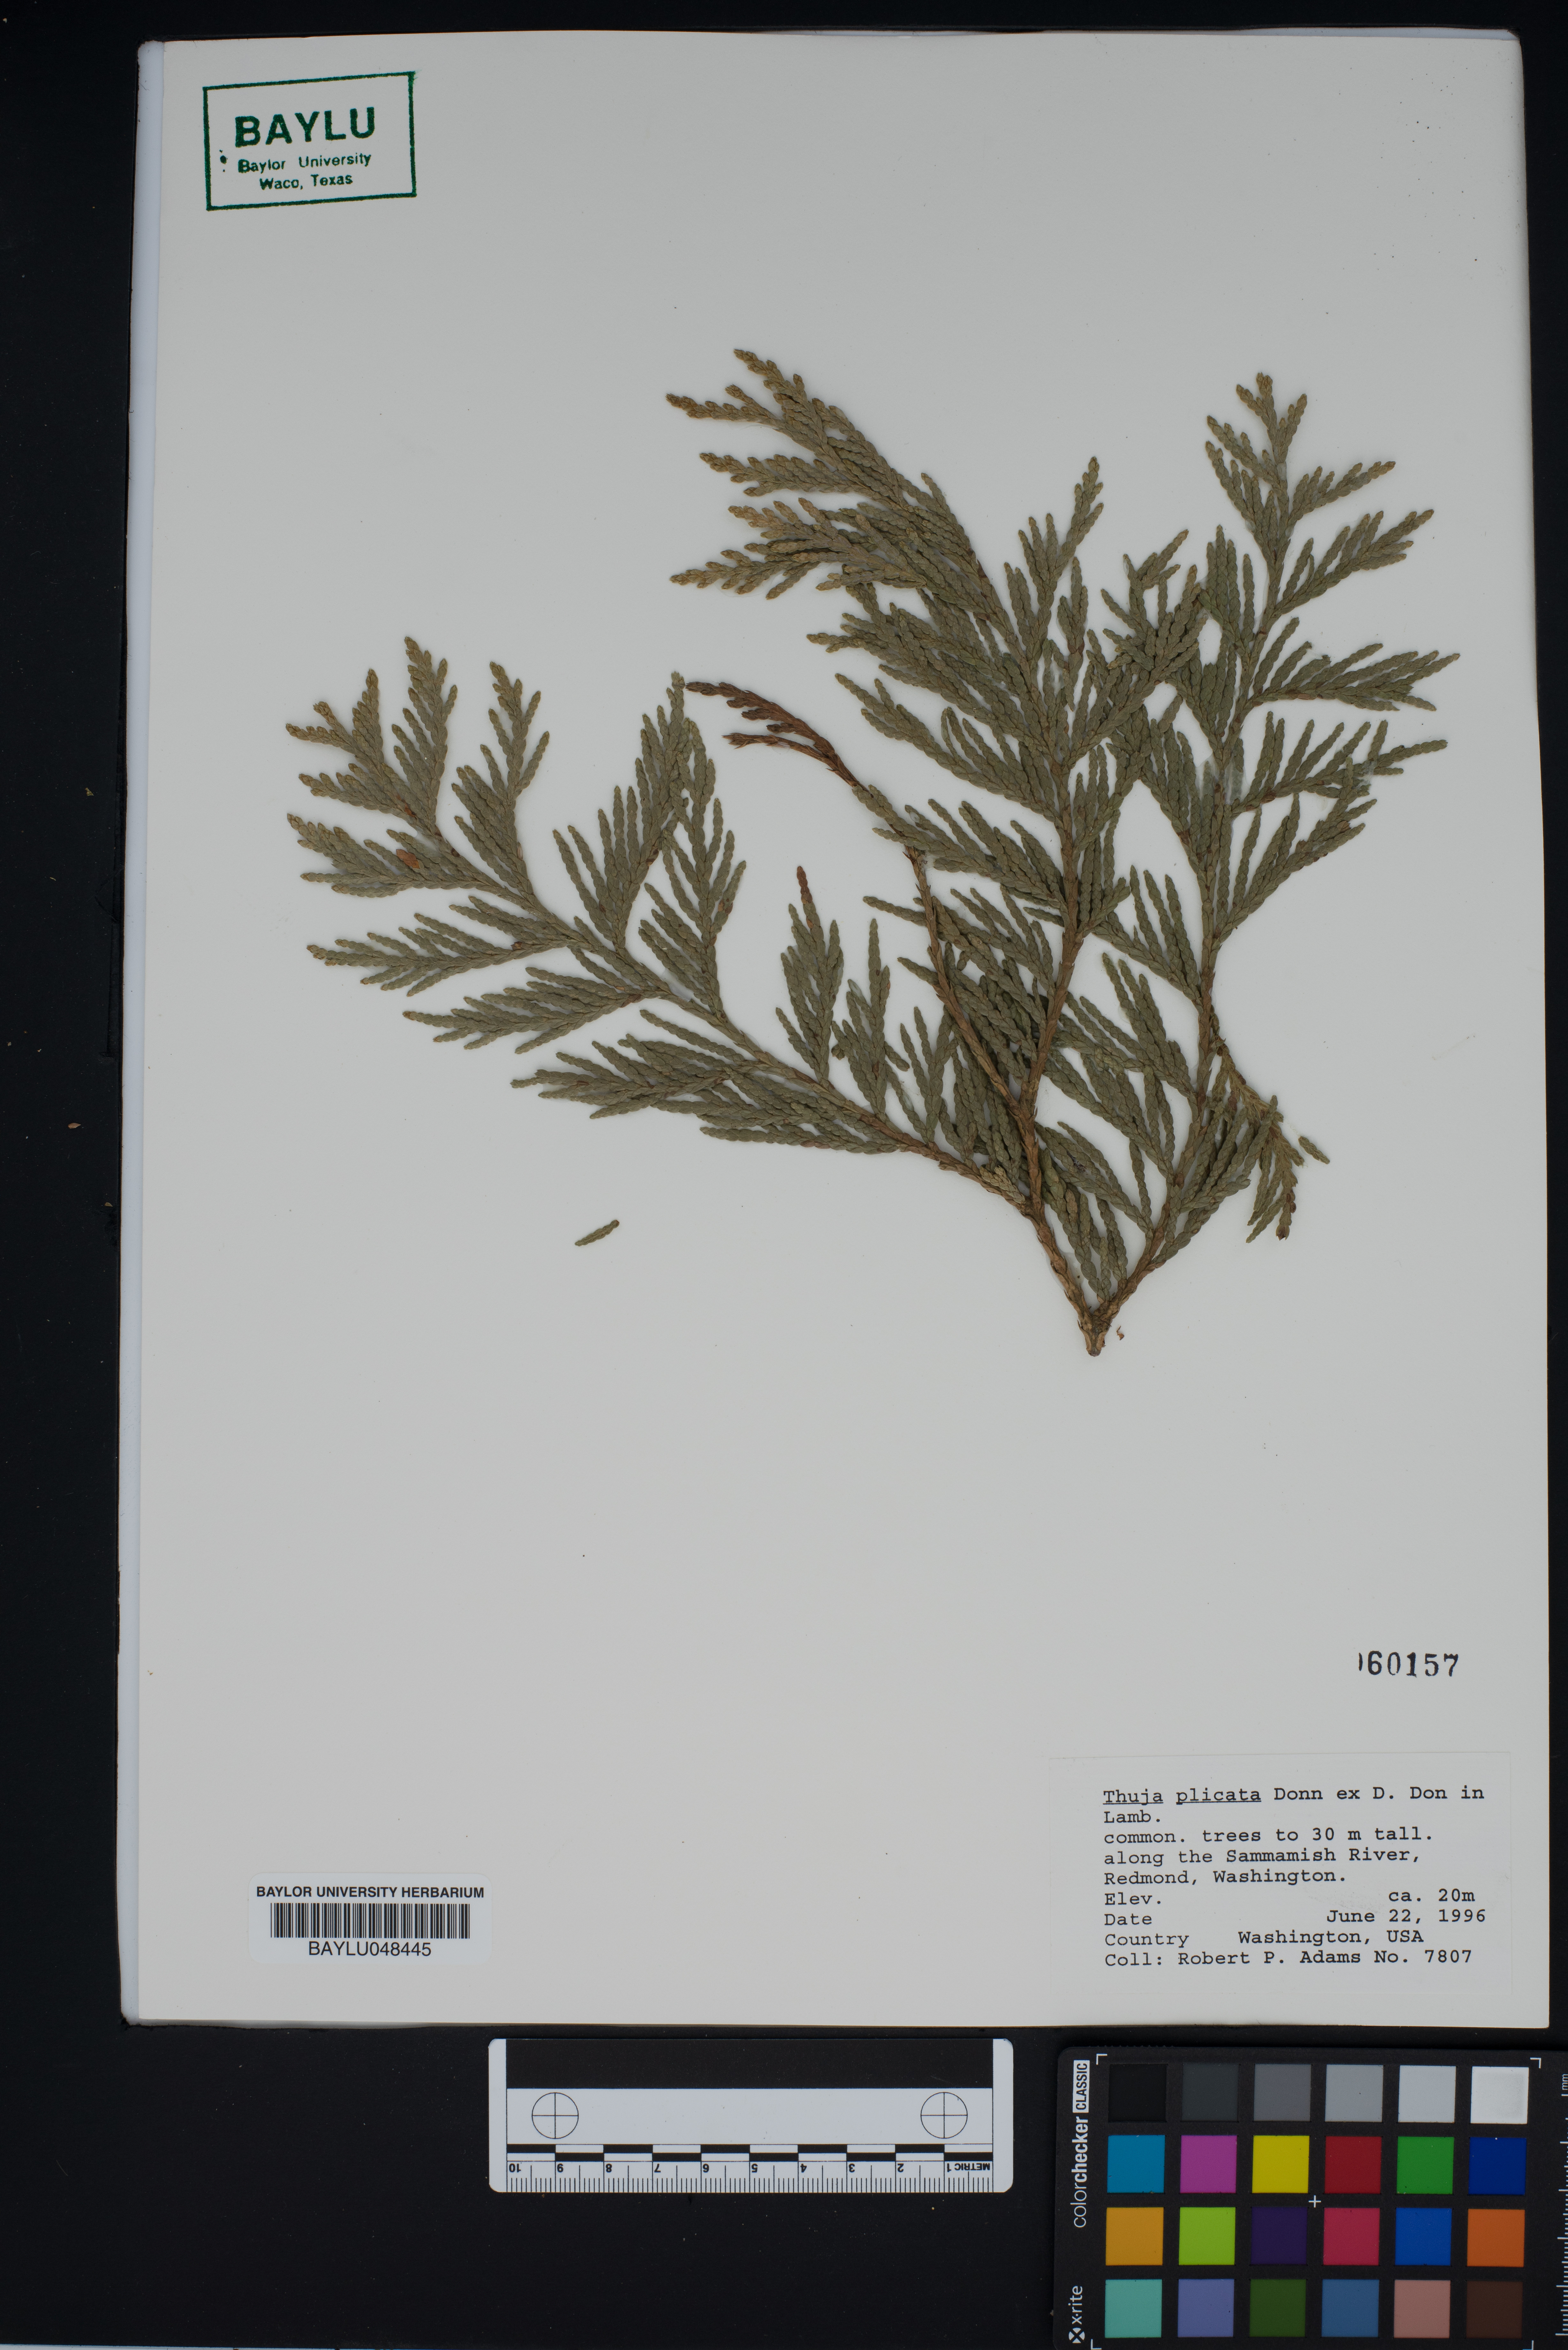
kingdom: Plantae
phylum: Tracheophyta
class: Pinopsida
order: Pinales
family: Cupressaceae
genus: Thuja
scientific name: Thuja plicata
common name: Western red-cedar
